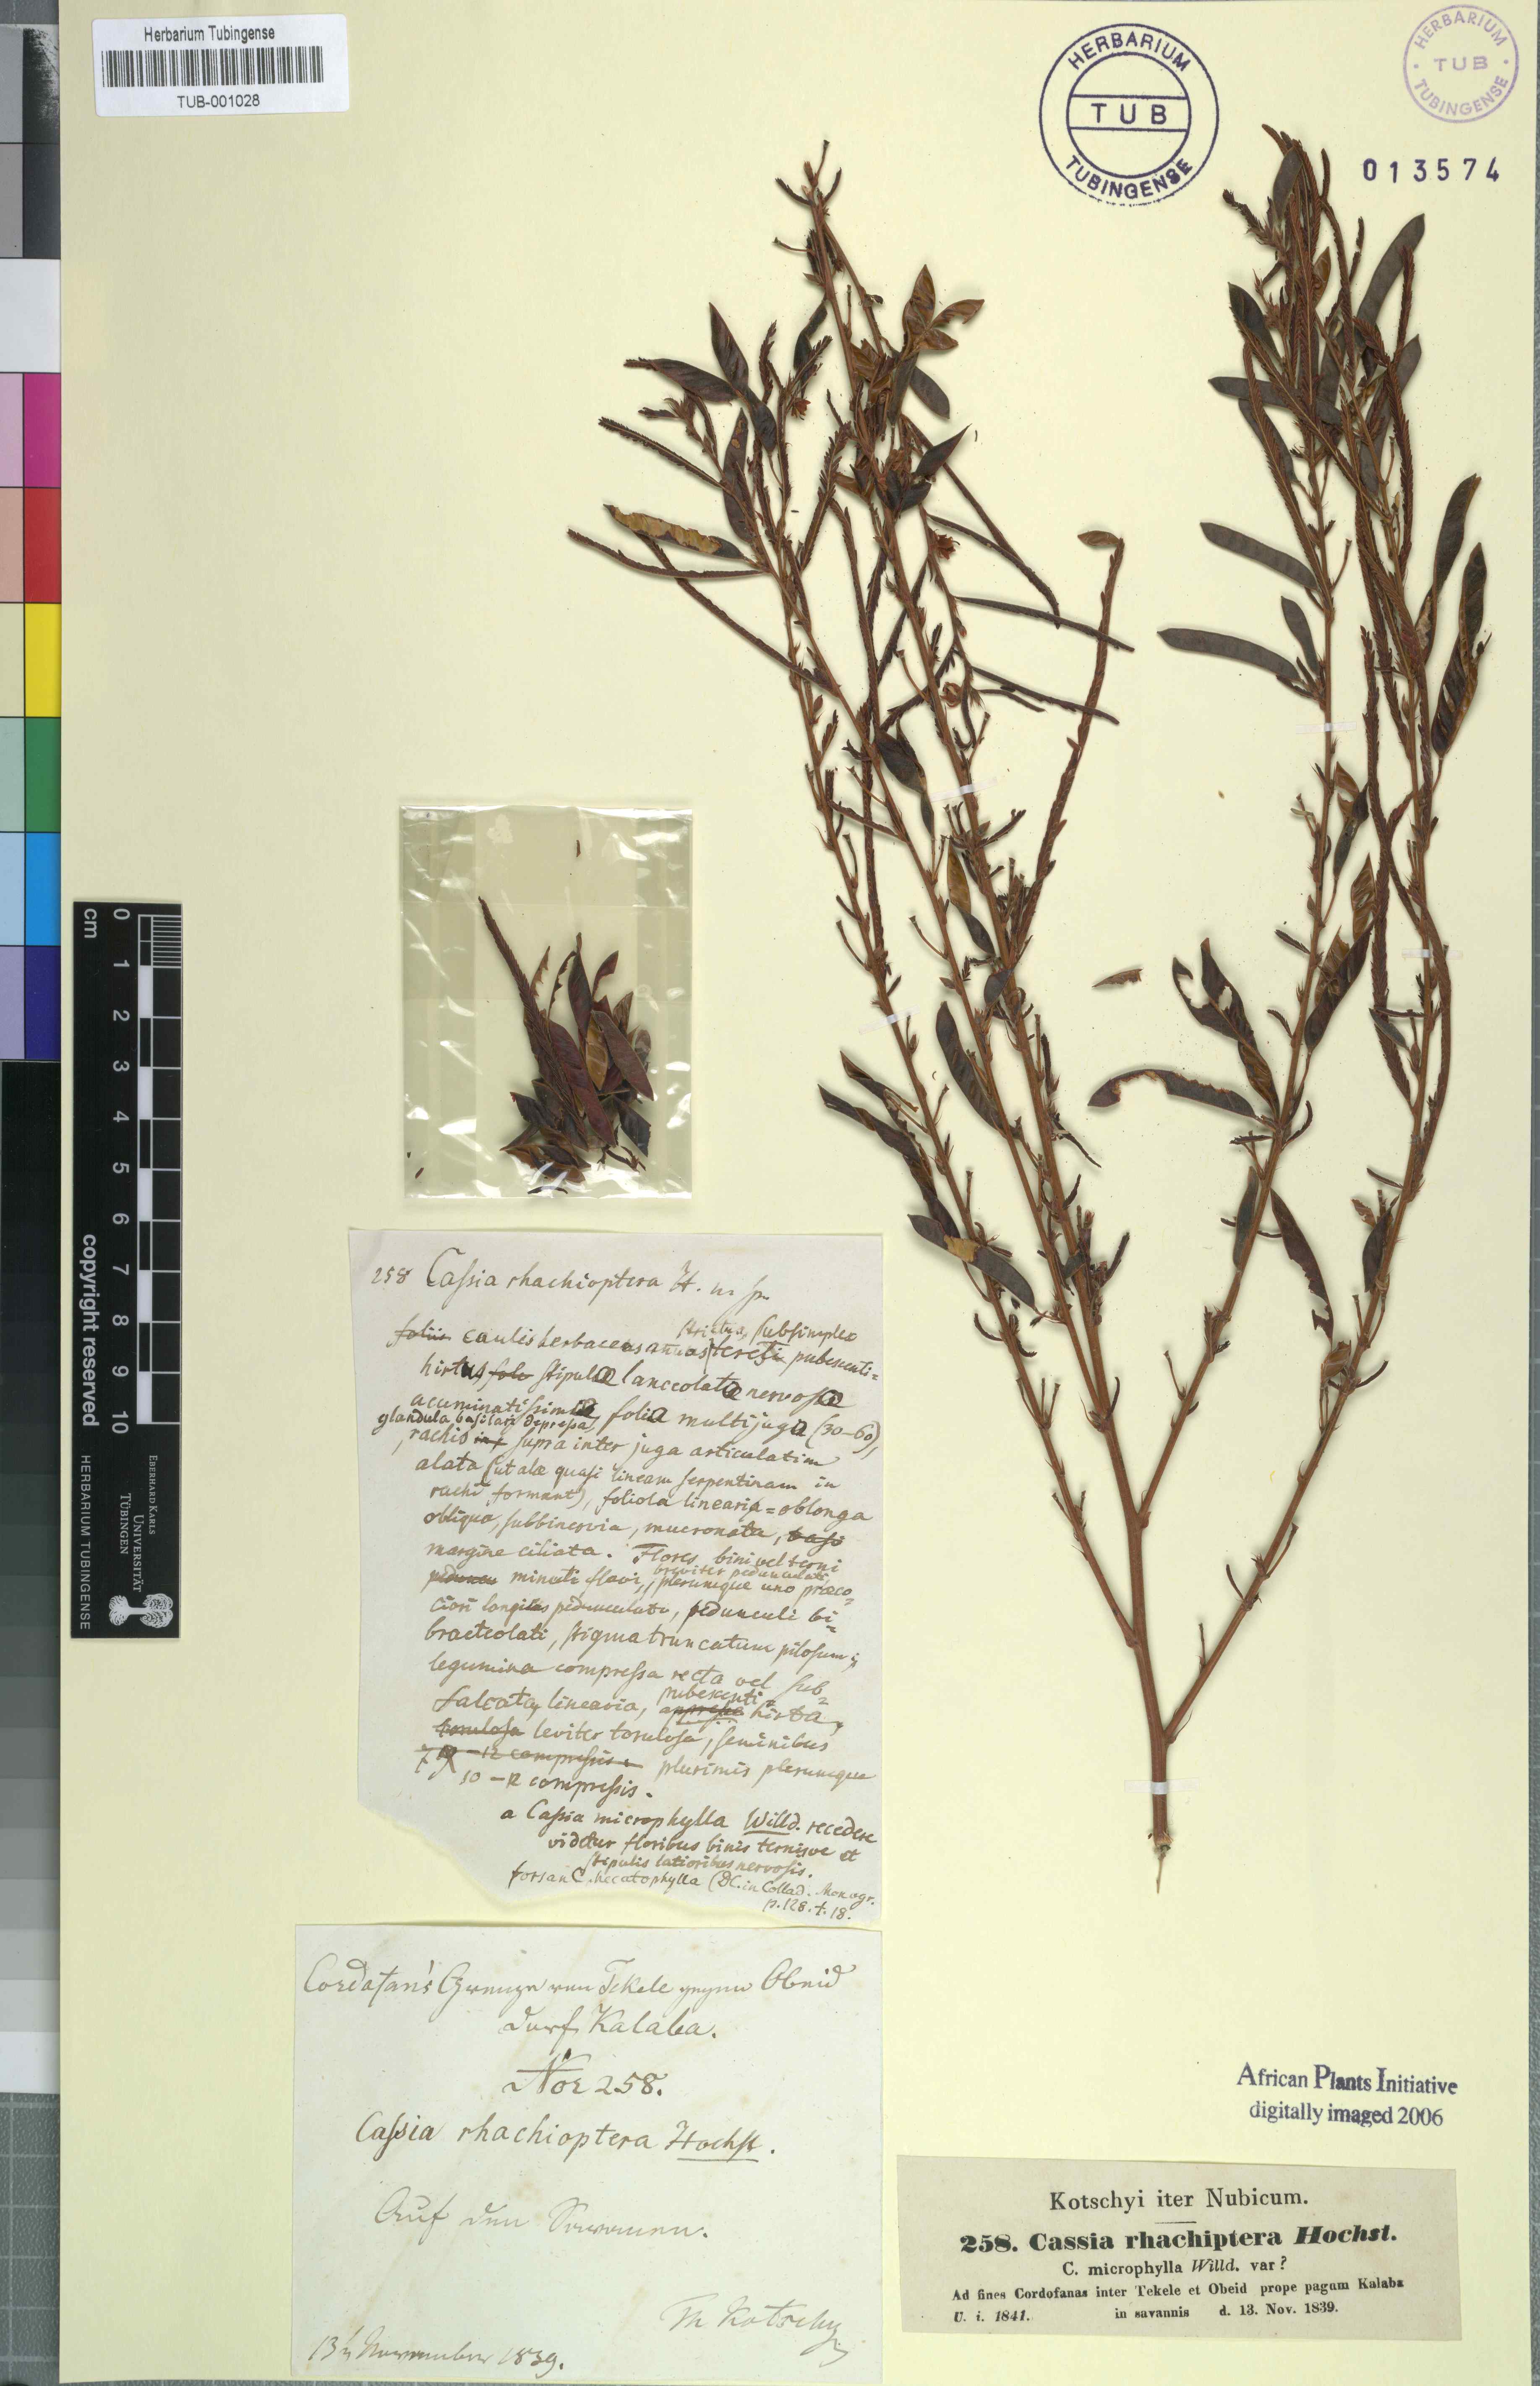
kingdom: Plantae
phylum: Tracheophyta
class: Magnoliopsida
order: Fabales
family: Fabaceae
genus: Cassia
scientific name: Cassia
